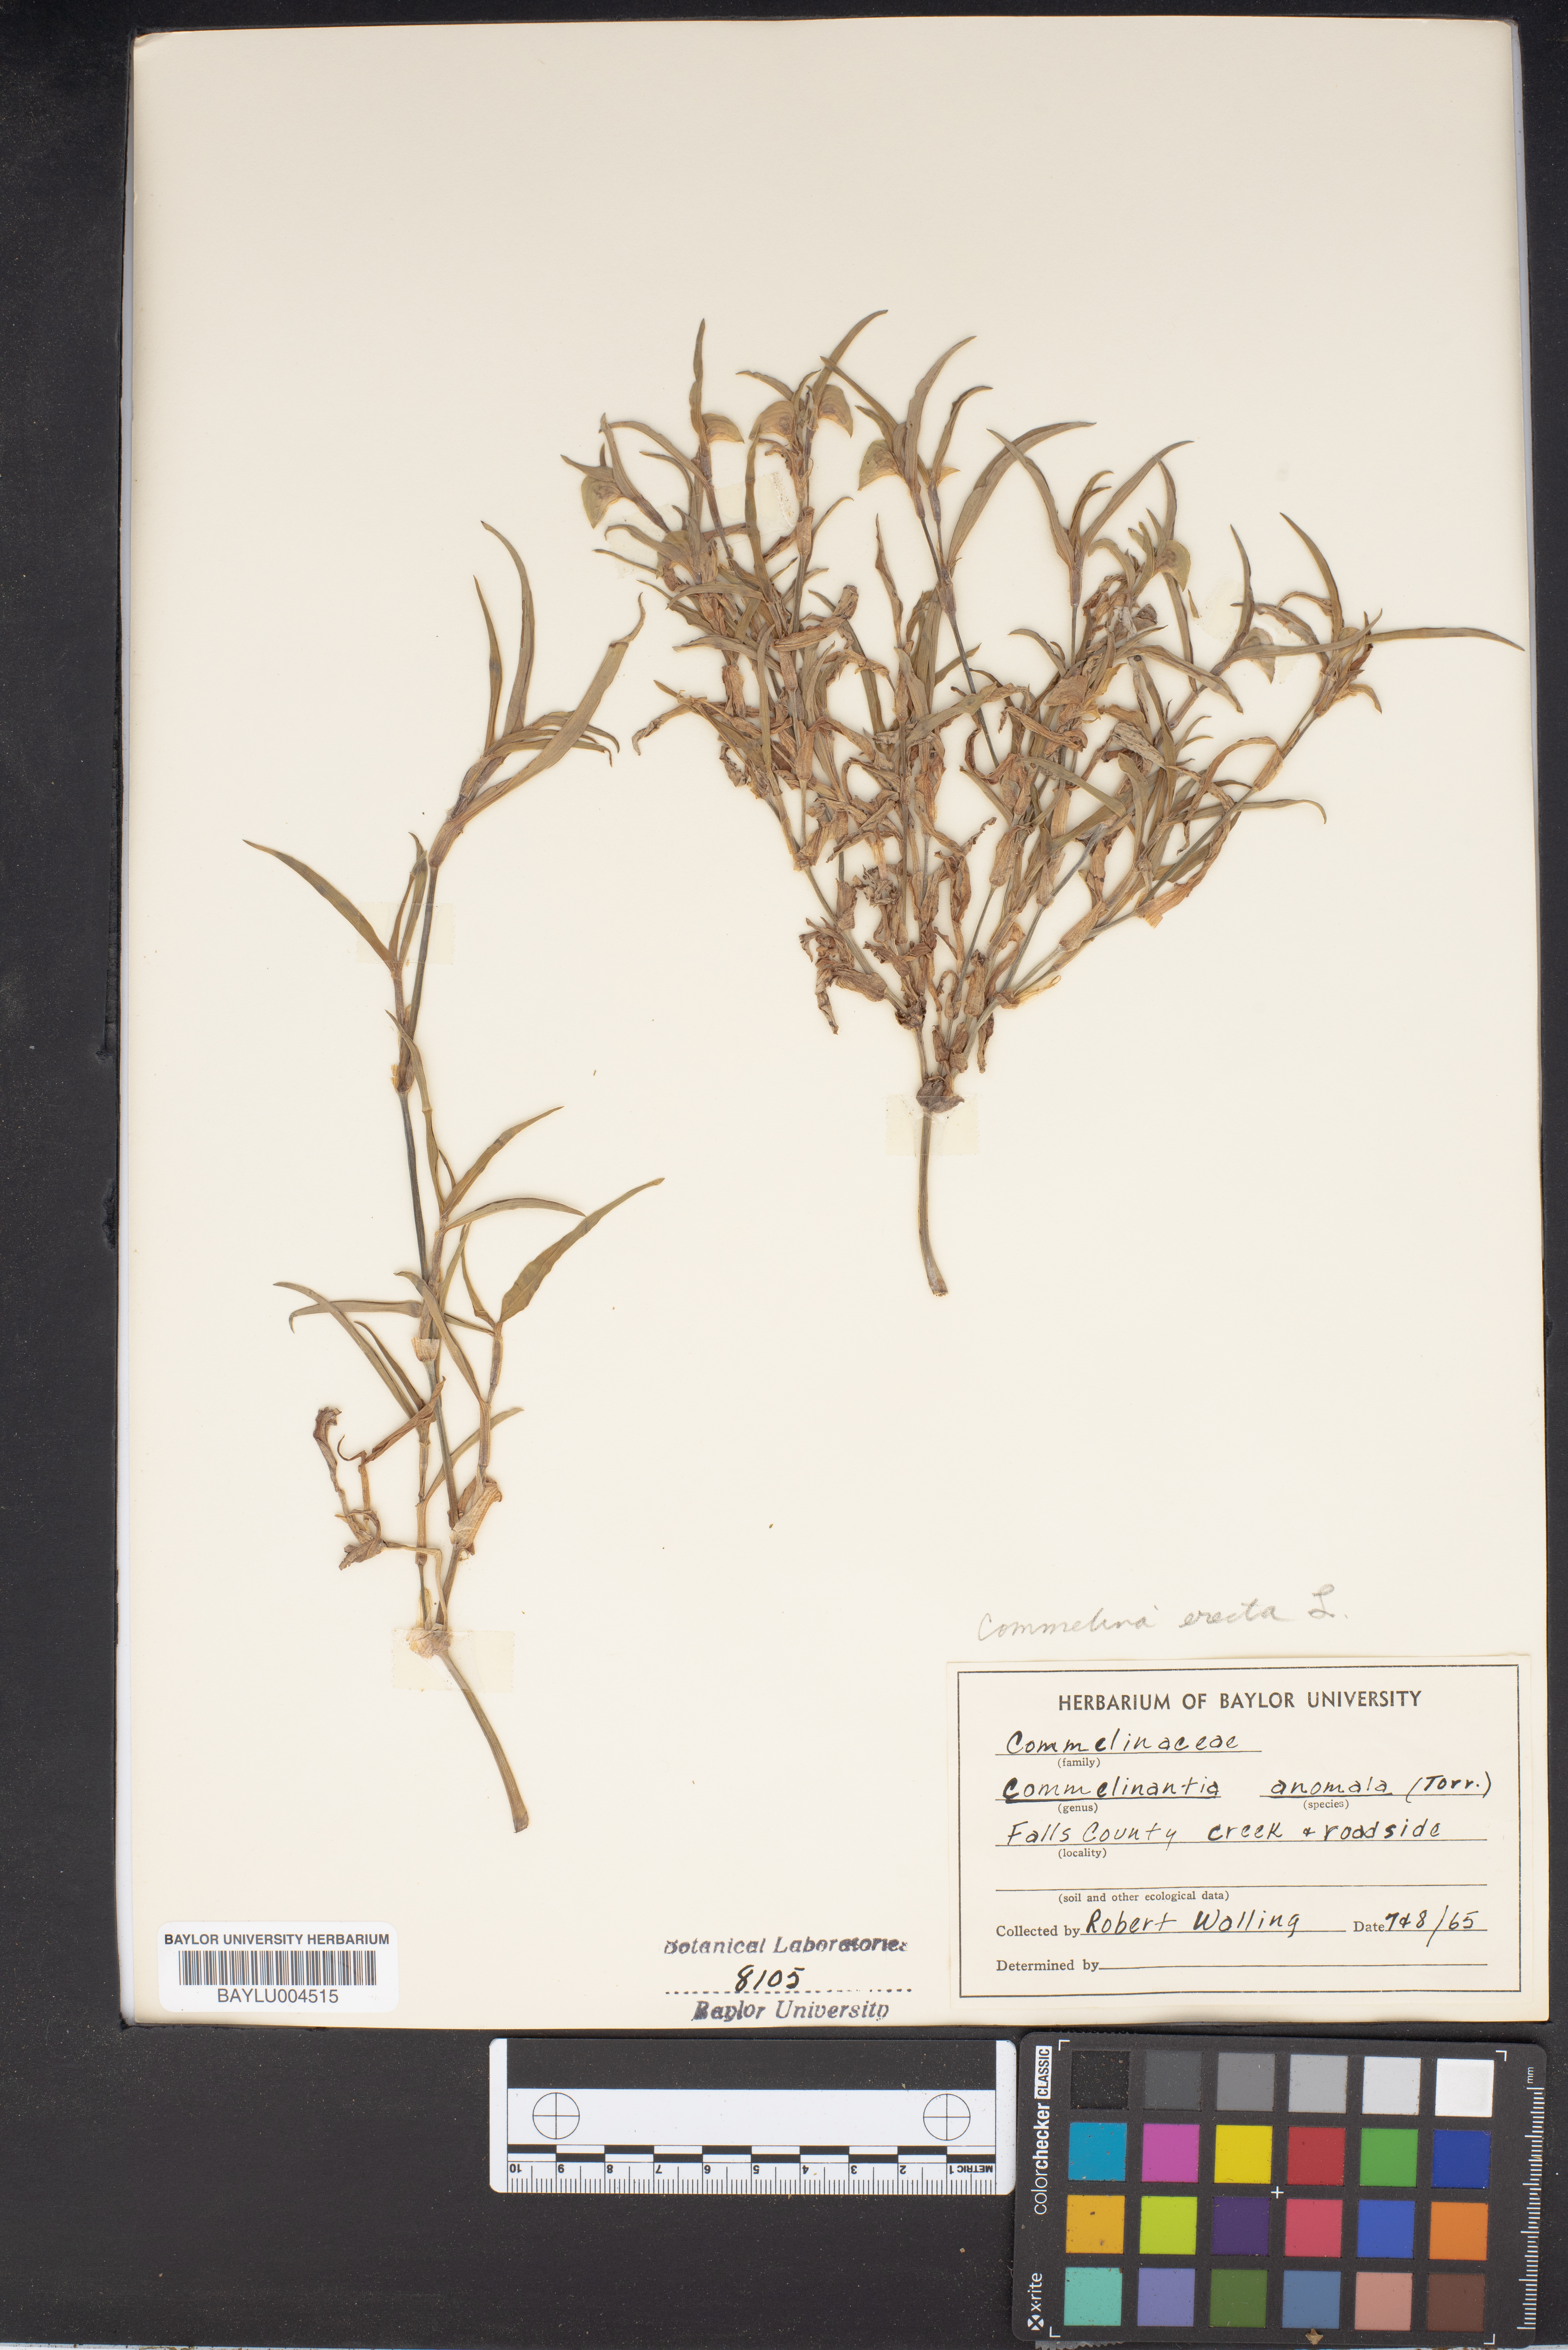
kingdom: Plantae
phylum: Tracheophyta
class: Liliopsida
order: Commelinales
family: Commelinaceae
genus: Tinantia
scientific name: Tinantia anomala
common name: False dayflower
